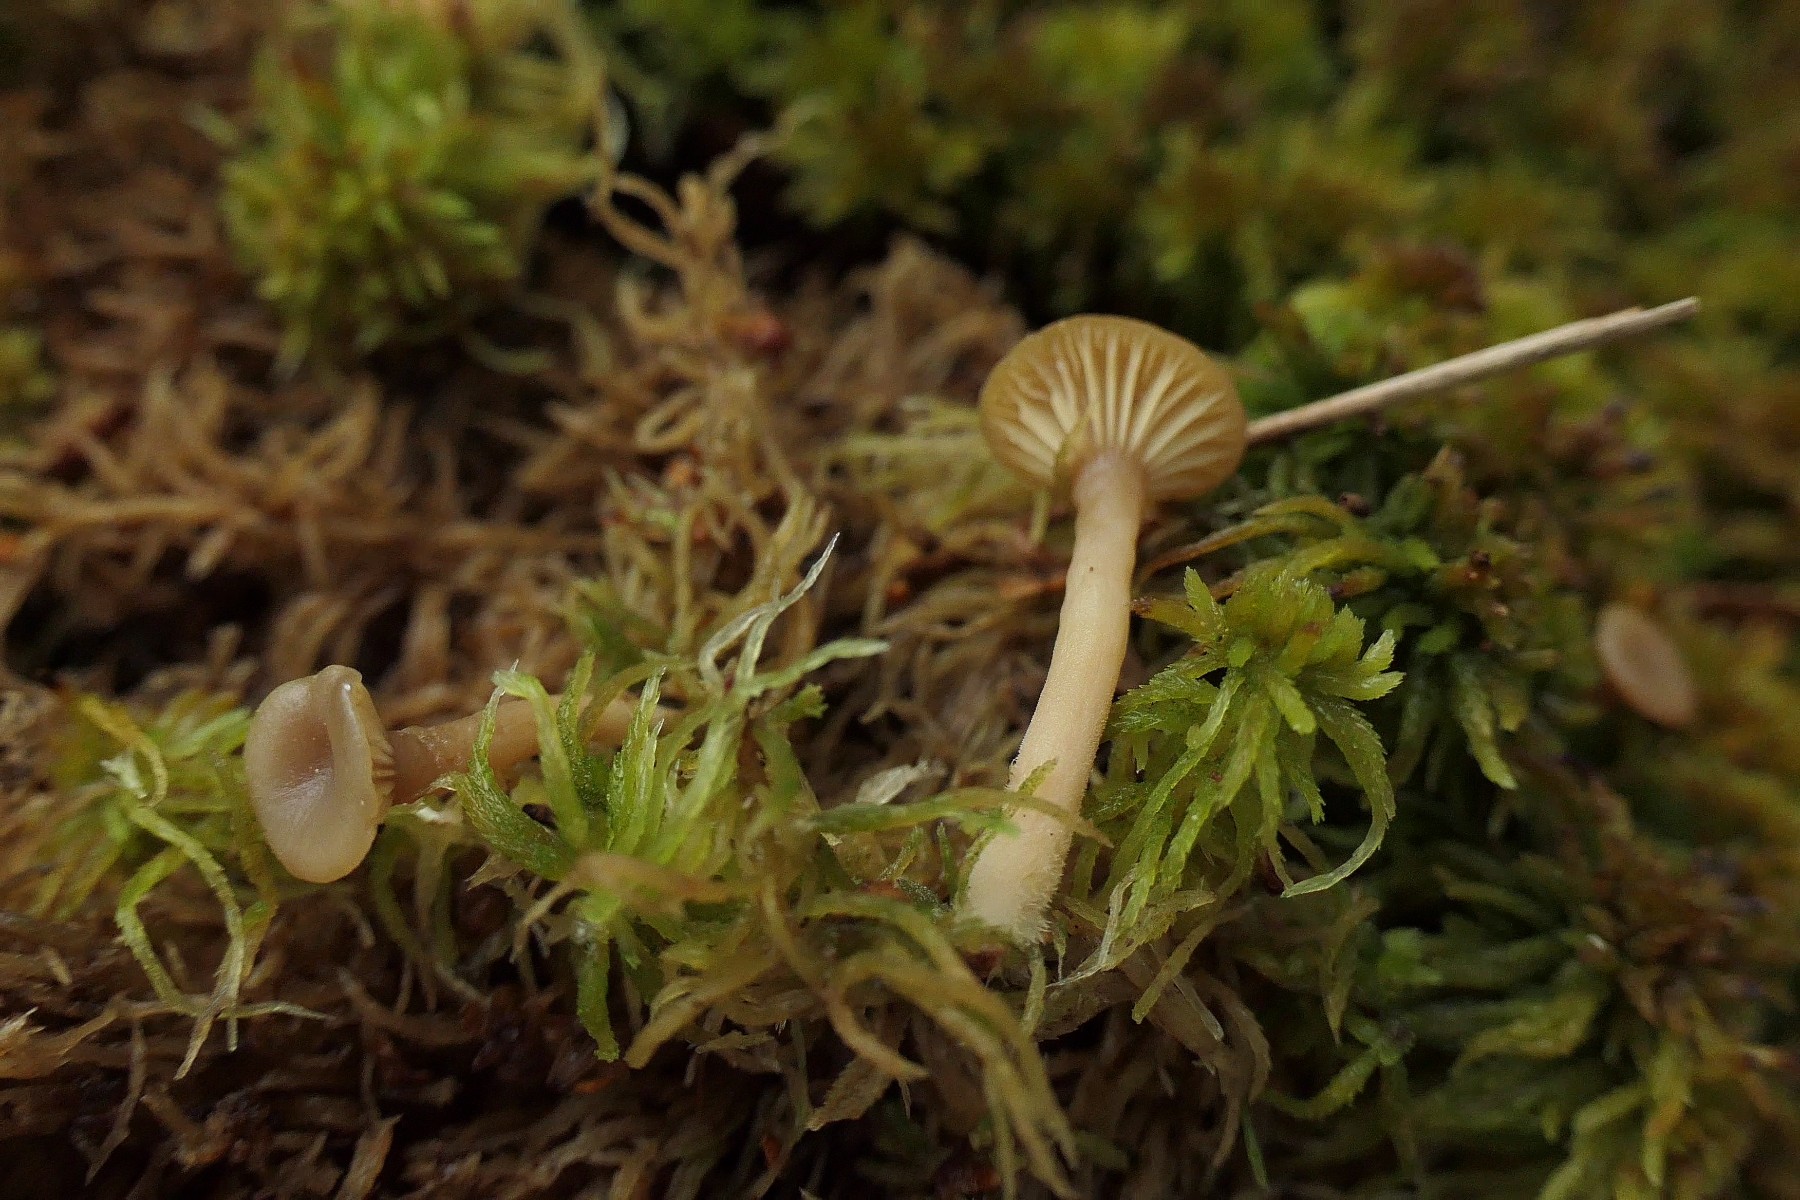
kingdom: Fungi
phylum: Basidiomycota
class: Agaricomycetes
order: Agaricales
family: Hygrophoraceae
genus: Lichenomphalia
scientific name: Lichenomphalia umbellifera
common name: tørve-lavhat
